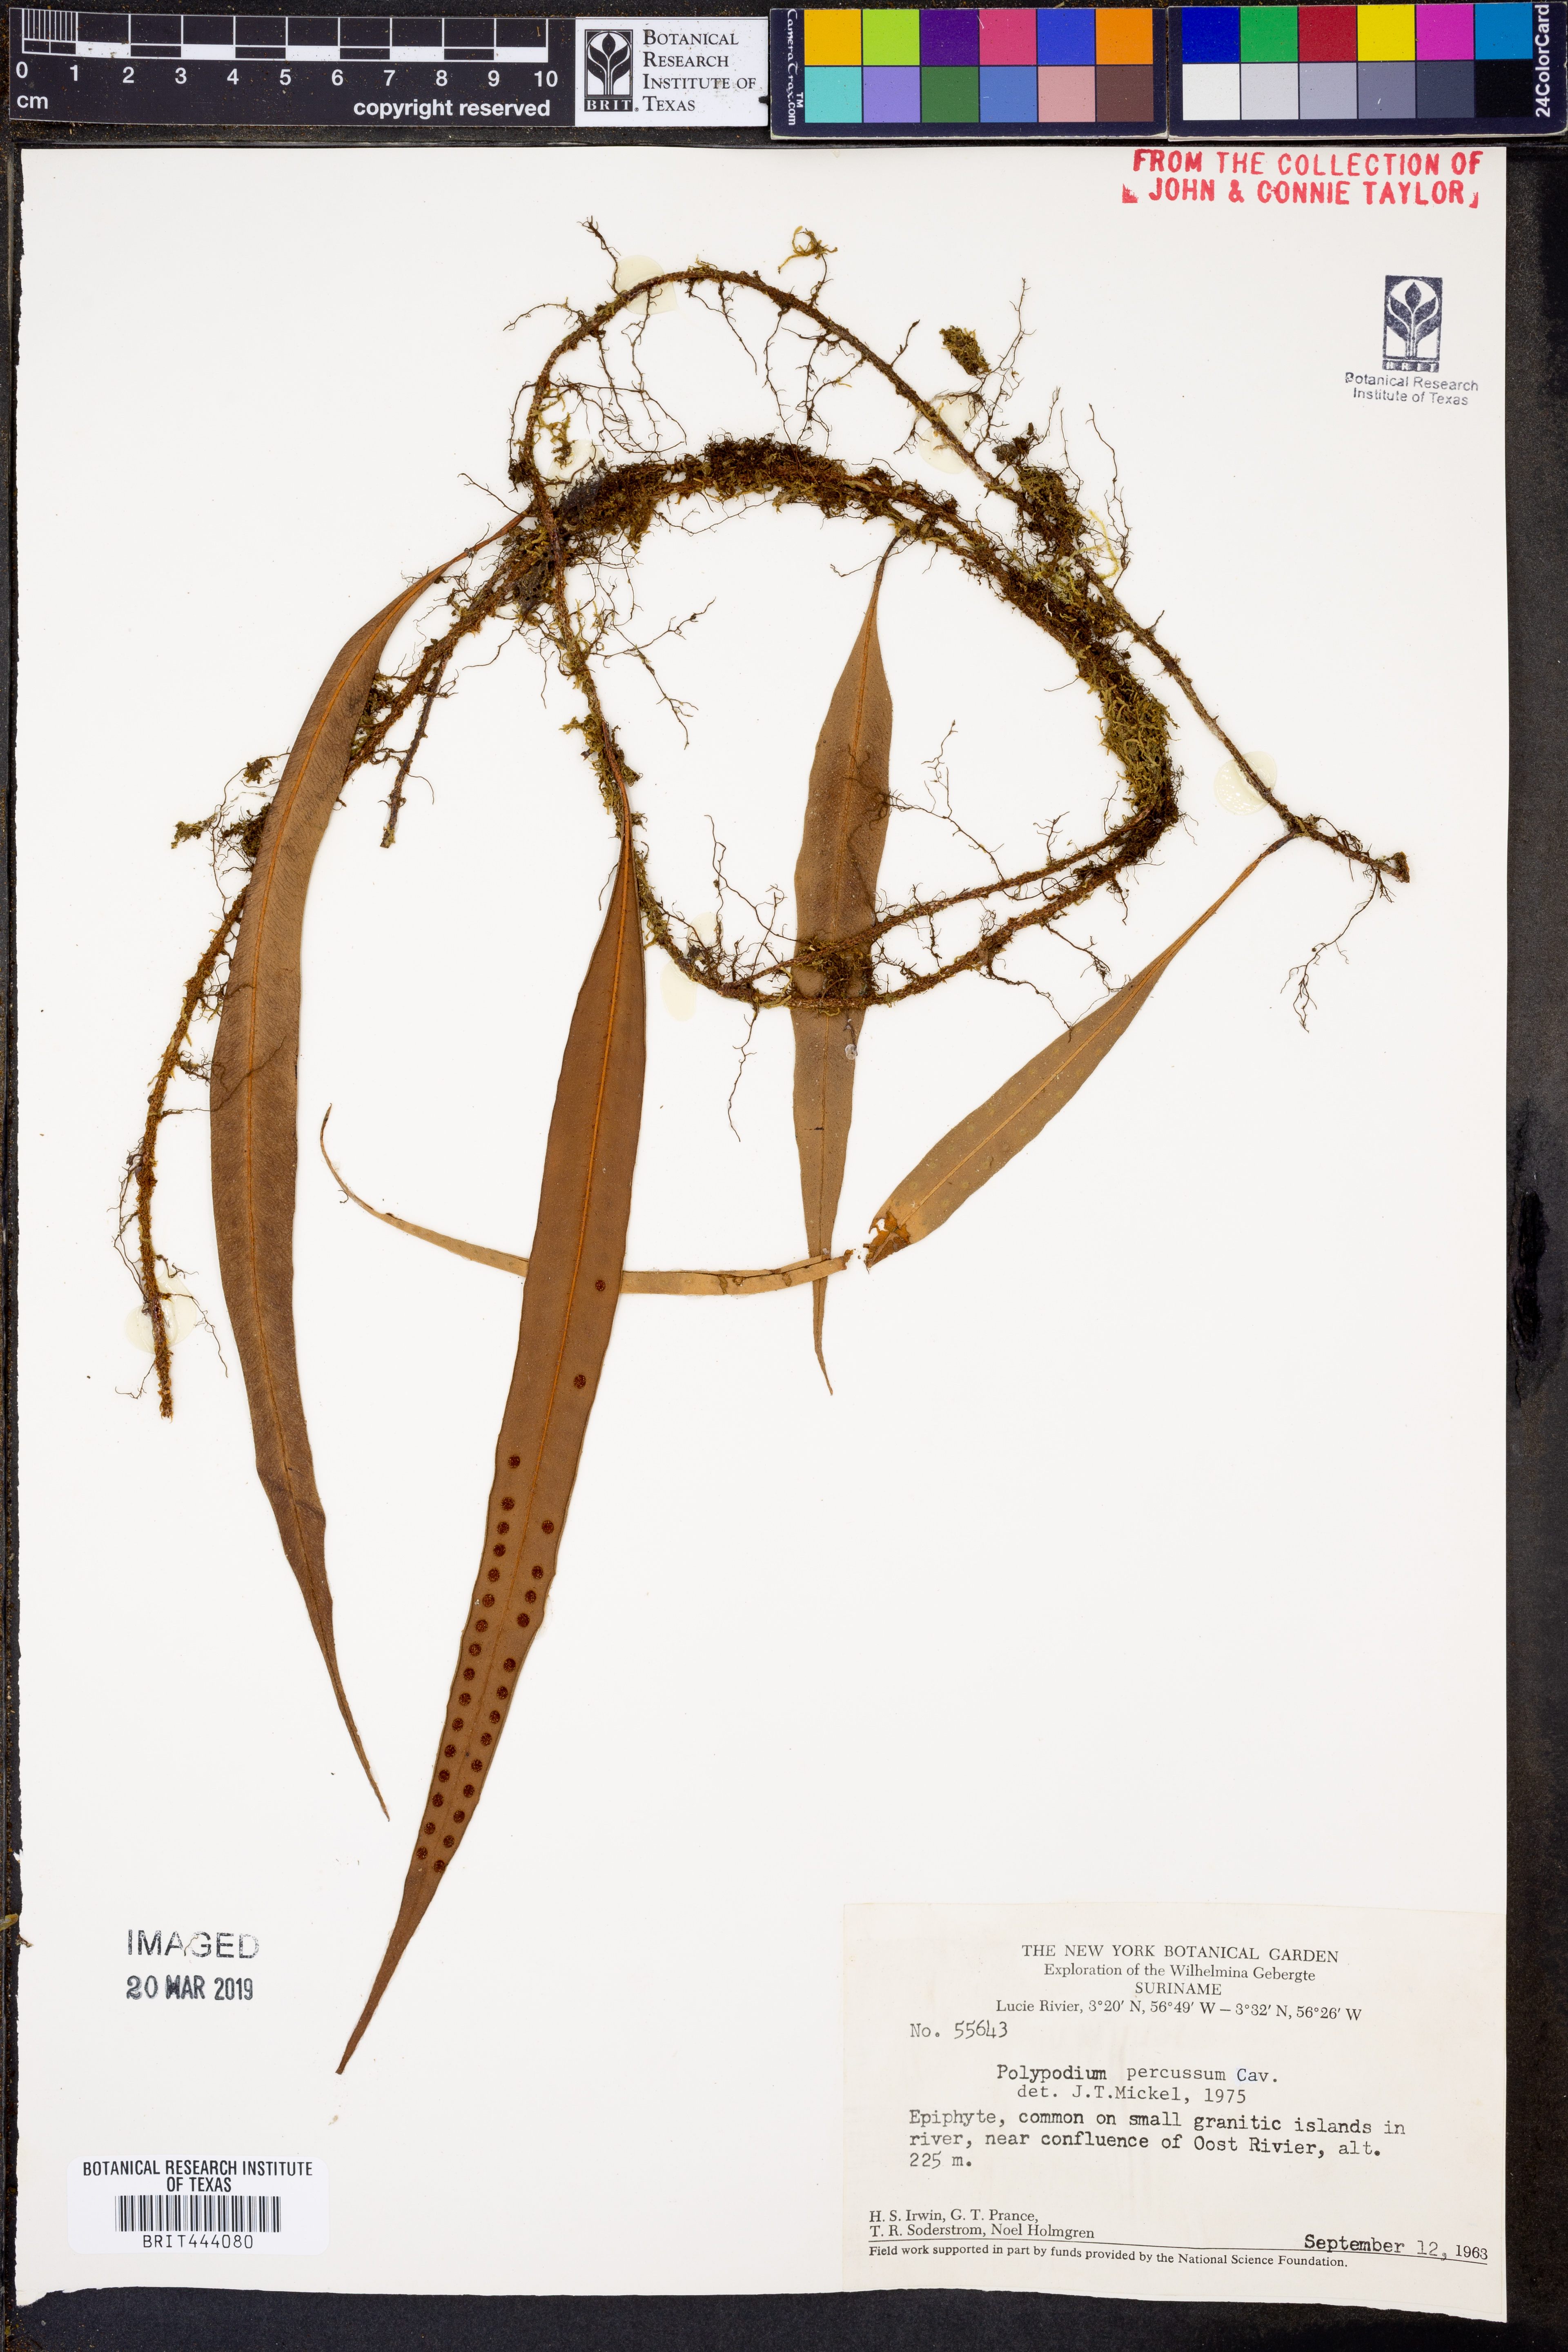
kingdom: Plantae
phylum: Tracheophyta
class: Polypodiopsida
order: Polypodiales
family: Polypodiaceae
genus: Microgramma
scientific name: Microgramma percussa
